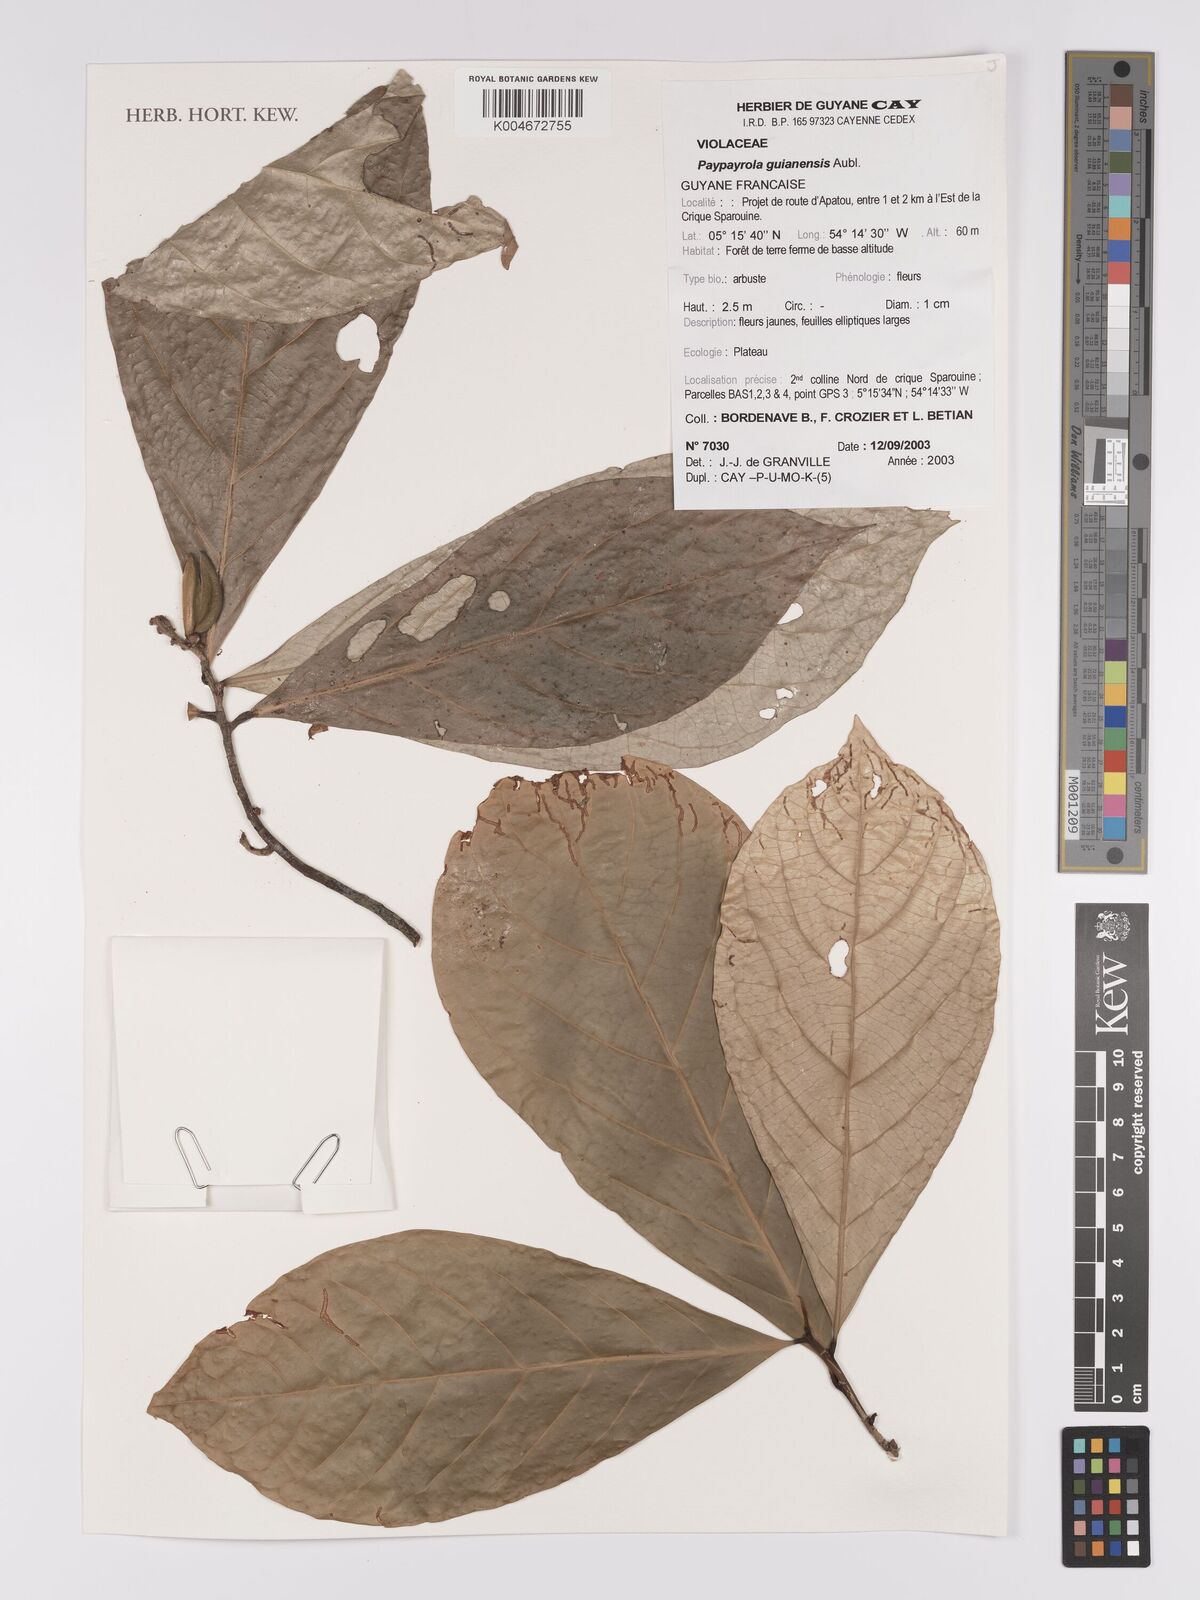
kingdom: Plantae
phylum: Tracheophyta
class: Magnoliopsida
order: Malpighiales
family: Violaceae
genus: Paypayrola
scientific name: Paypayrola guianensis
